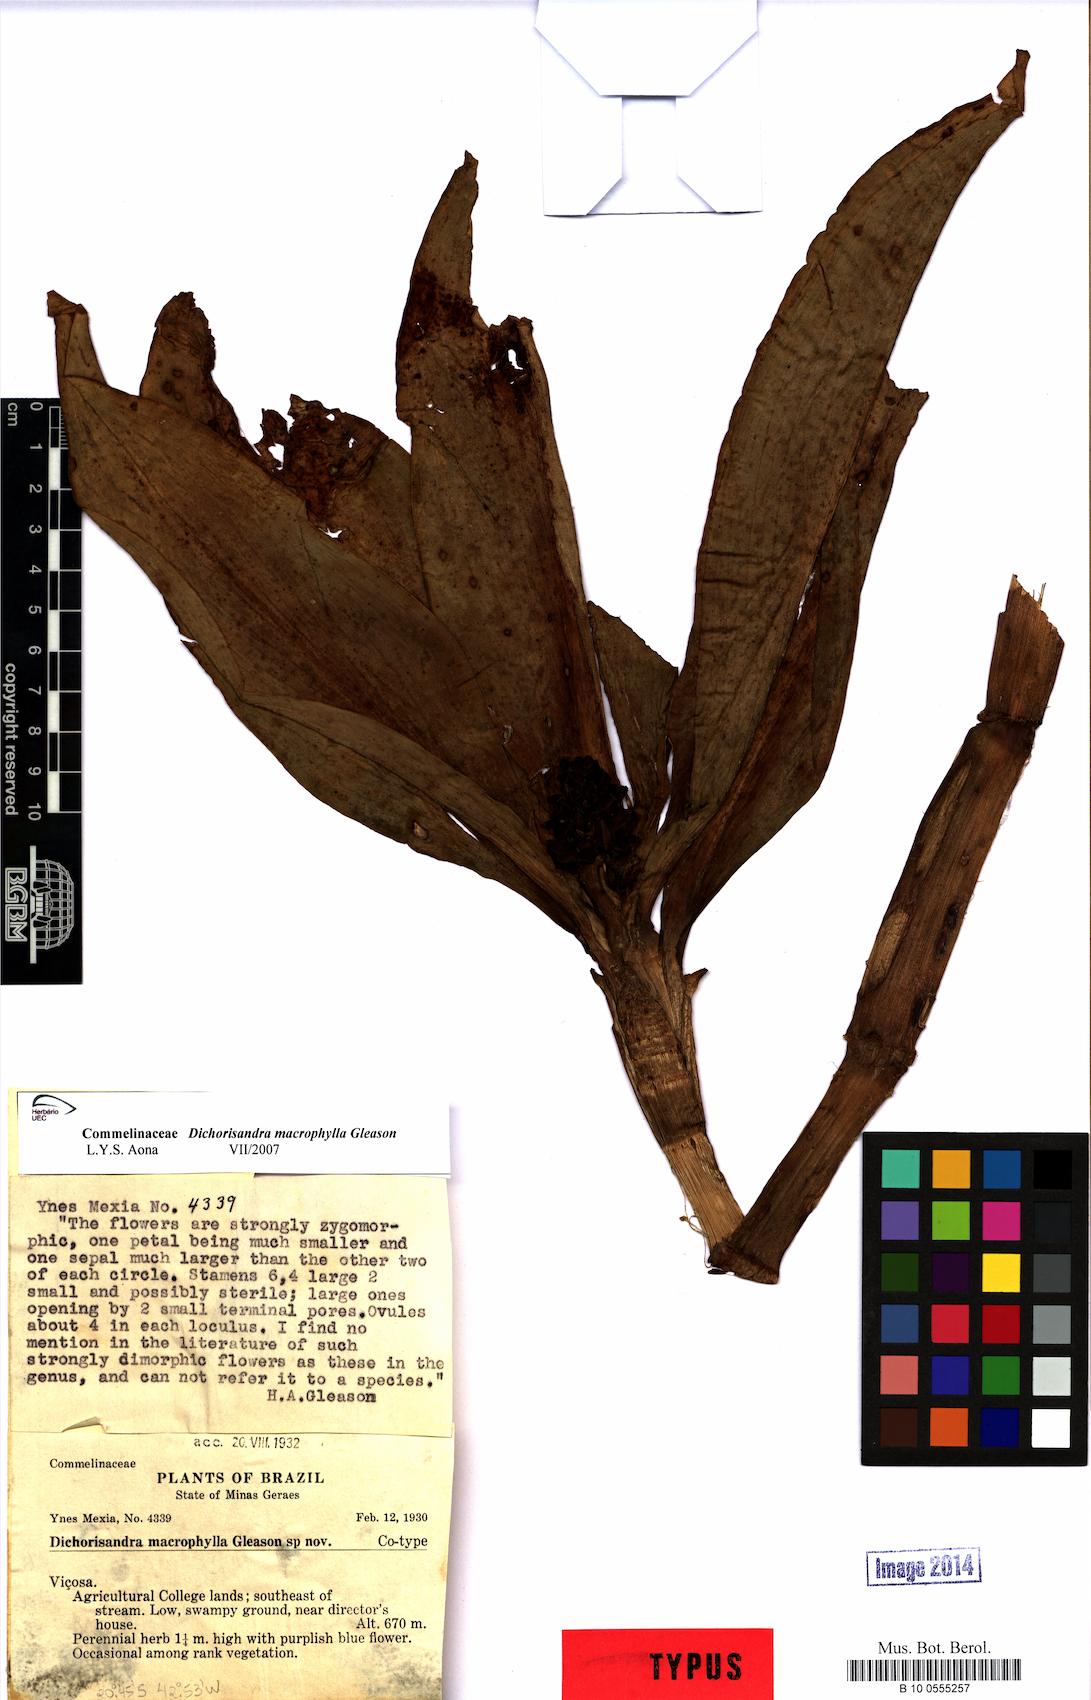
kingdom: Plantae
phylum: Tracheophyta
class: Liliopsida
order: Commelinales
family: Commelinaceae
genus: Dichorisandra
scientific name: Dichorisandra albomarginata
